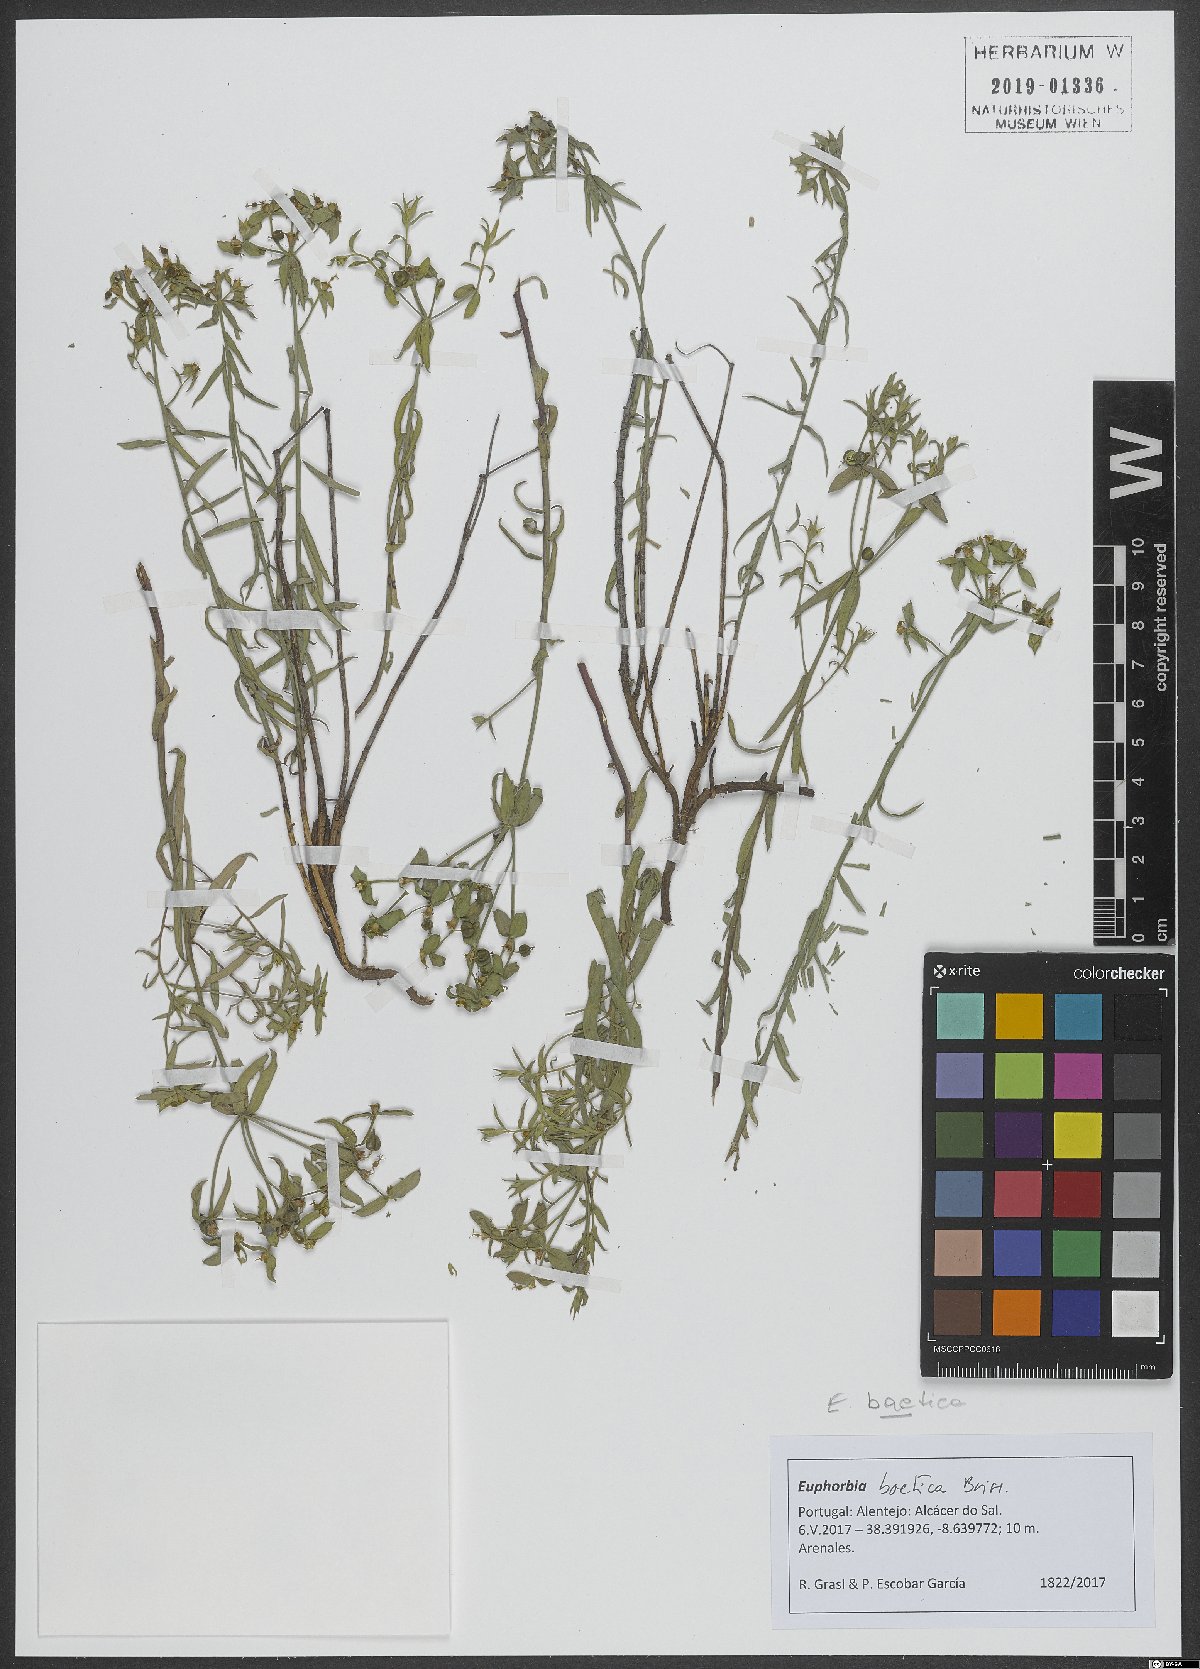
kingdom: Plantae
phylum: Tracheophyta
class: Magnoliopsida
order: Malpighiales
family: Euphorbiaceae
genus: Euphorbia
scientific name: Euphorbia boetica
